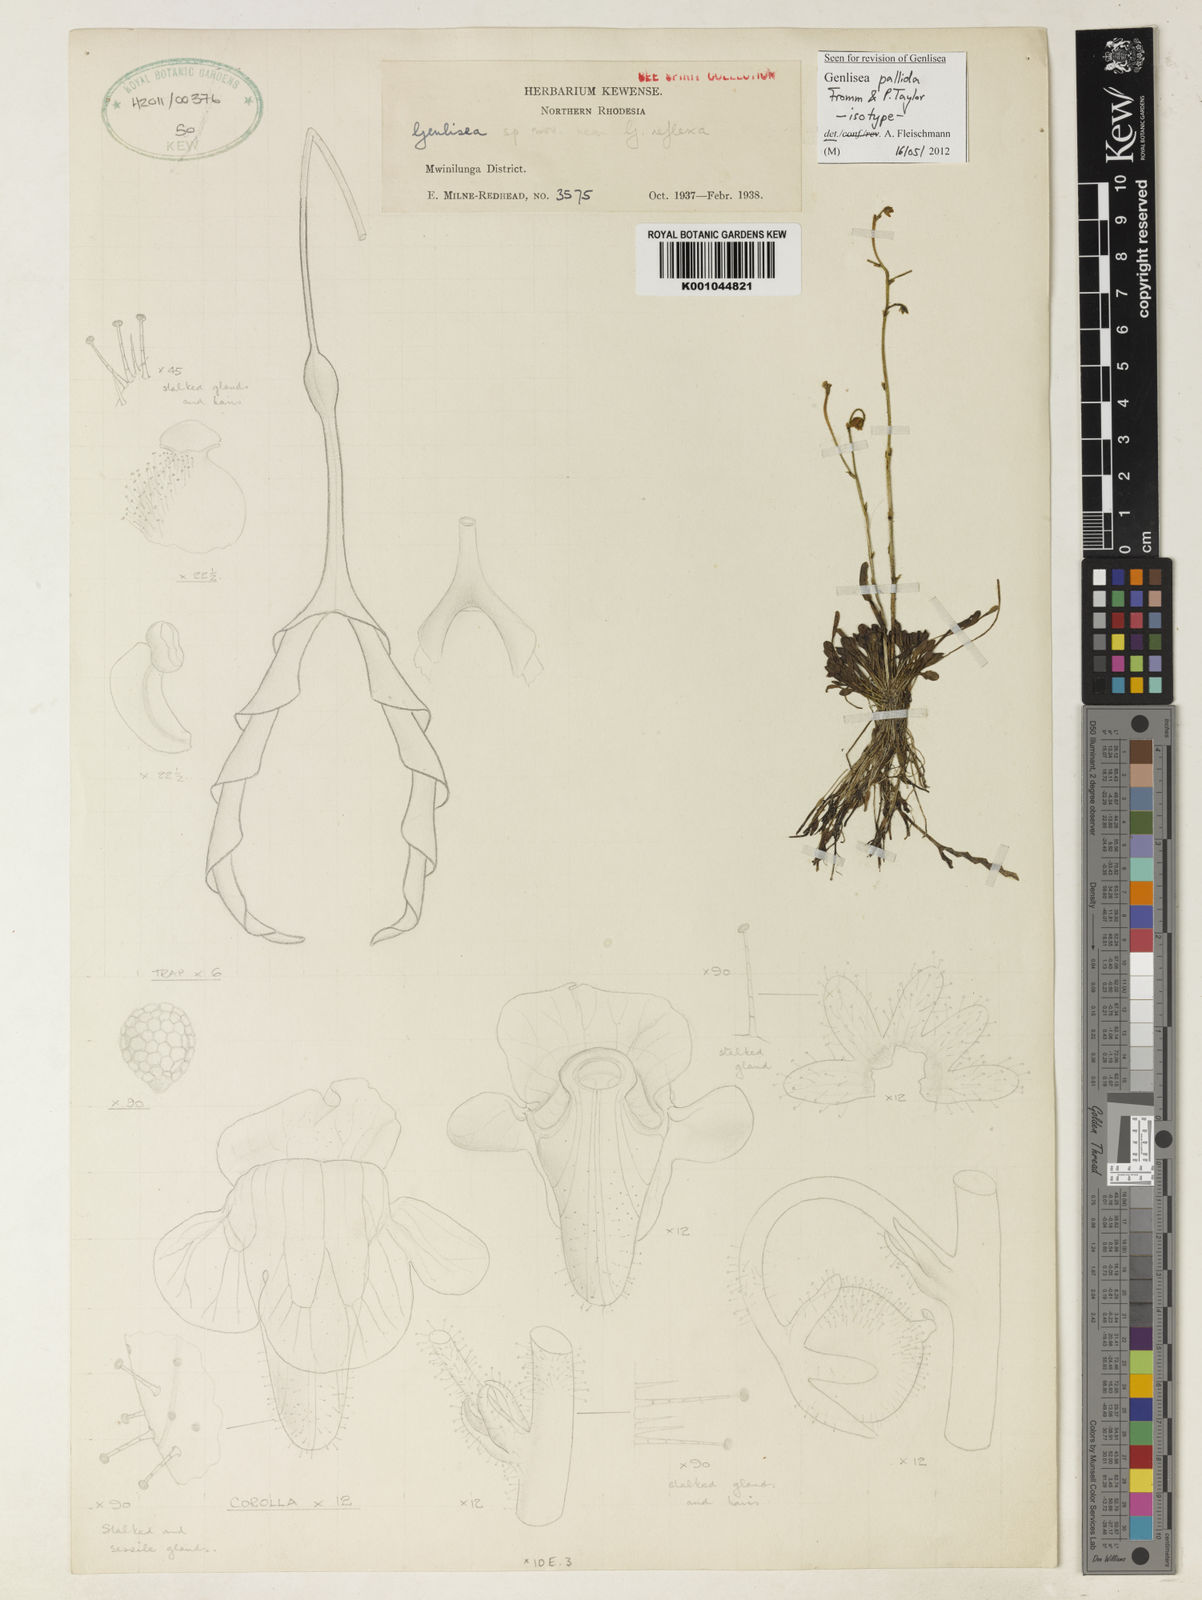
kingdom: Plantae
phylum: Tracheophyta
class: Magnoliopsida
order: Lamiales
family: Lentibulariaceae
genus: Genlisea
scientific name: Genlisea pallida
